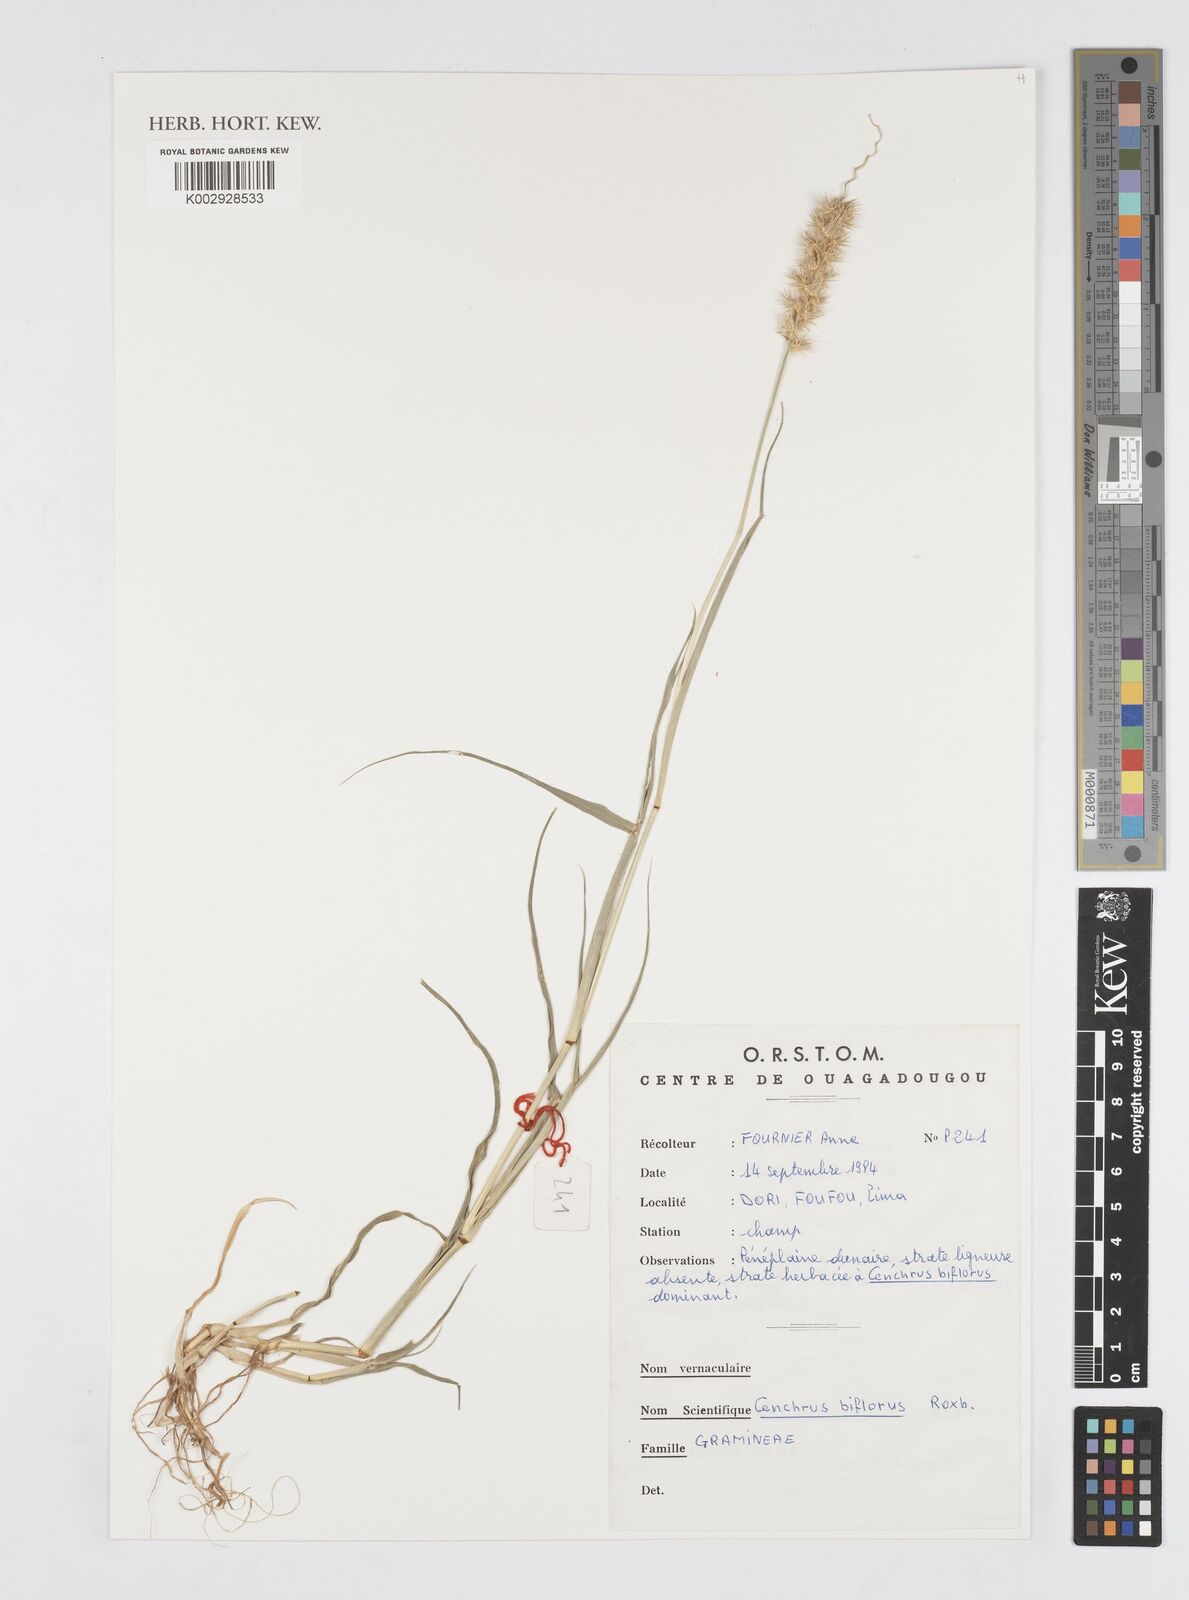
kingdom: Plantae
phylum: Tracheophyta
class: Liliopsida
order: Poales
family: Poaceae
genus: Cenchrus
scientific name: Cenchrus biflorus
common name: Indian sandbur
